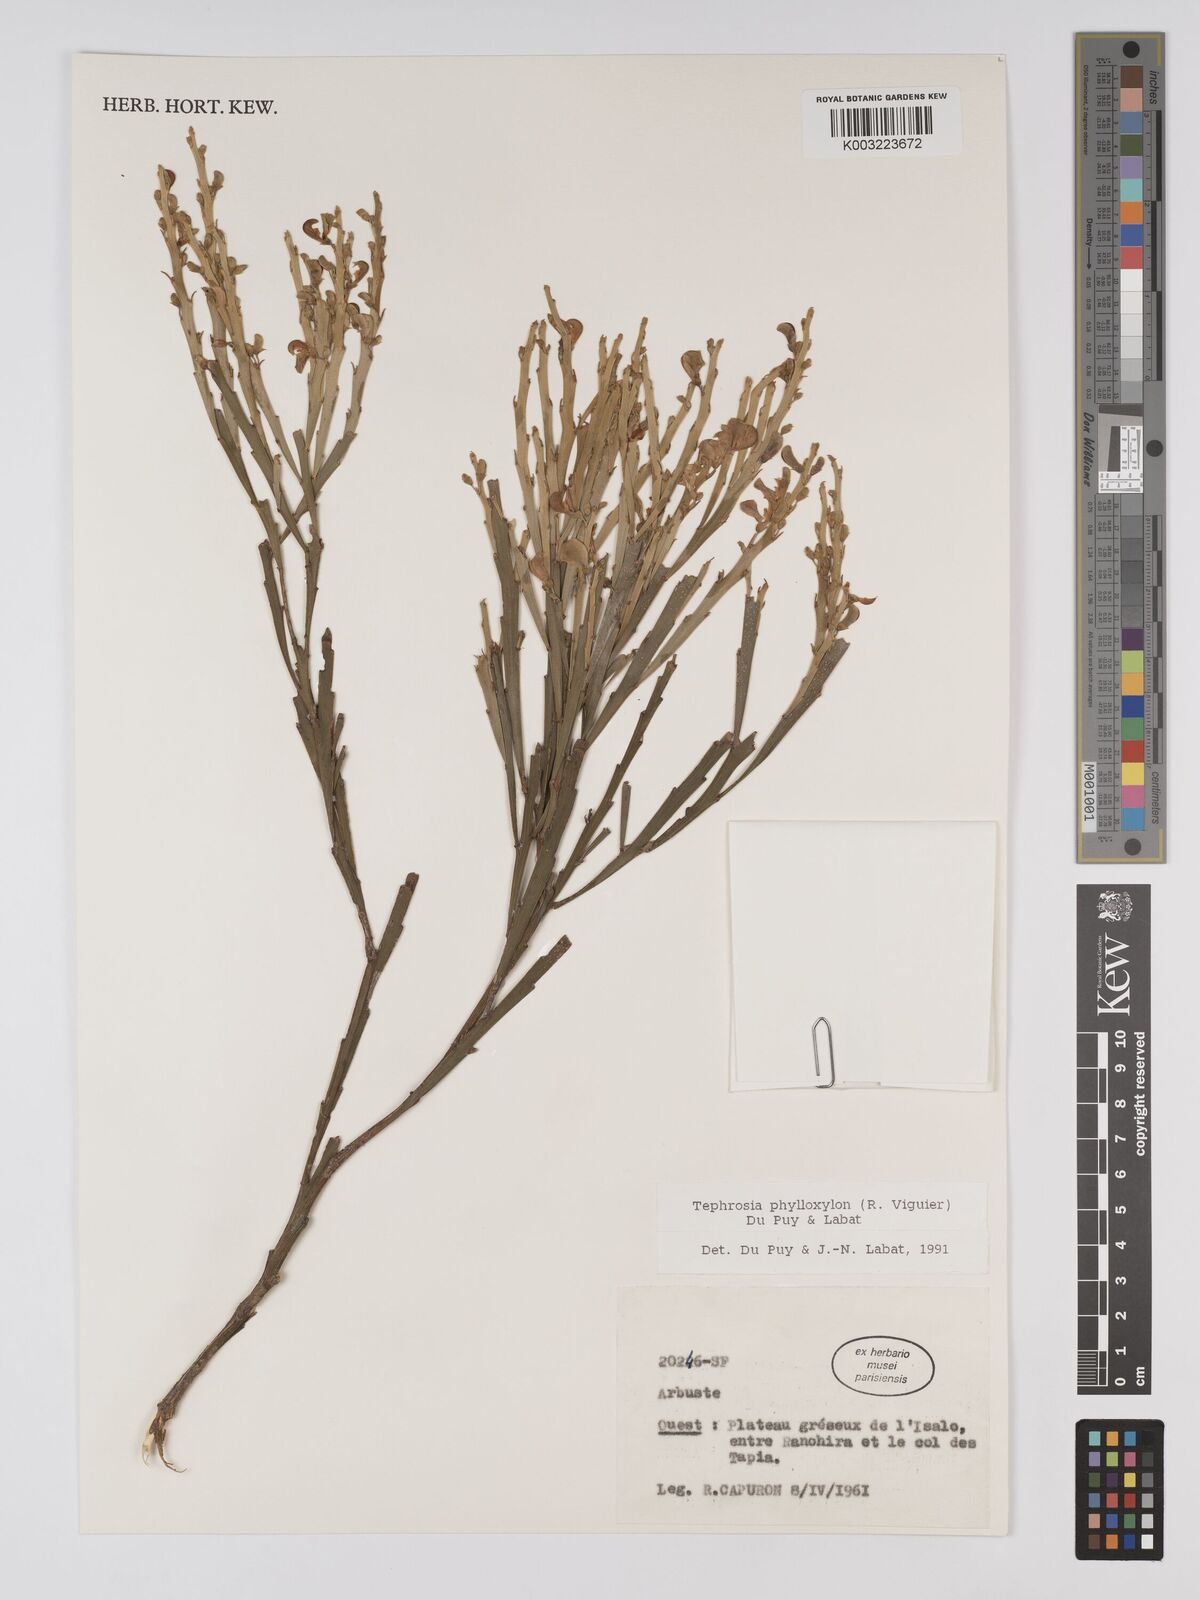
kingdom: Plantae
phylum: Tracheophyta
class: Magnoliopsida
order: Fabales
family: Fabaceae
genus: Tephrosia
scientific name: Tephrosia phylloxylon
